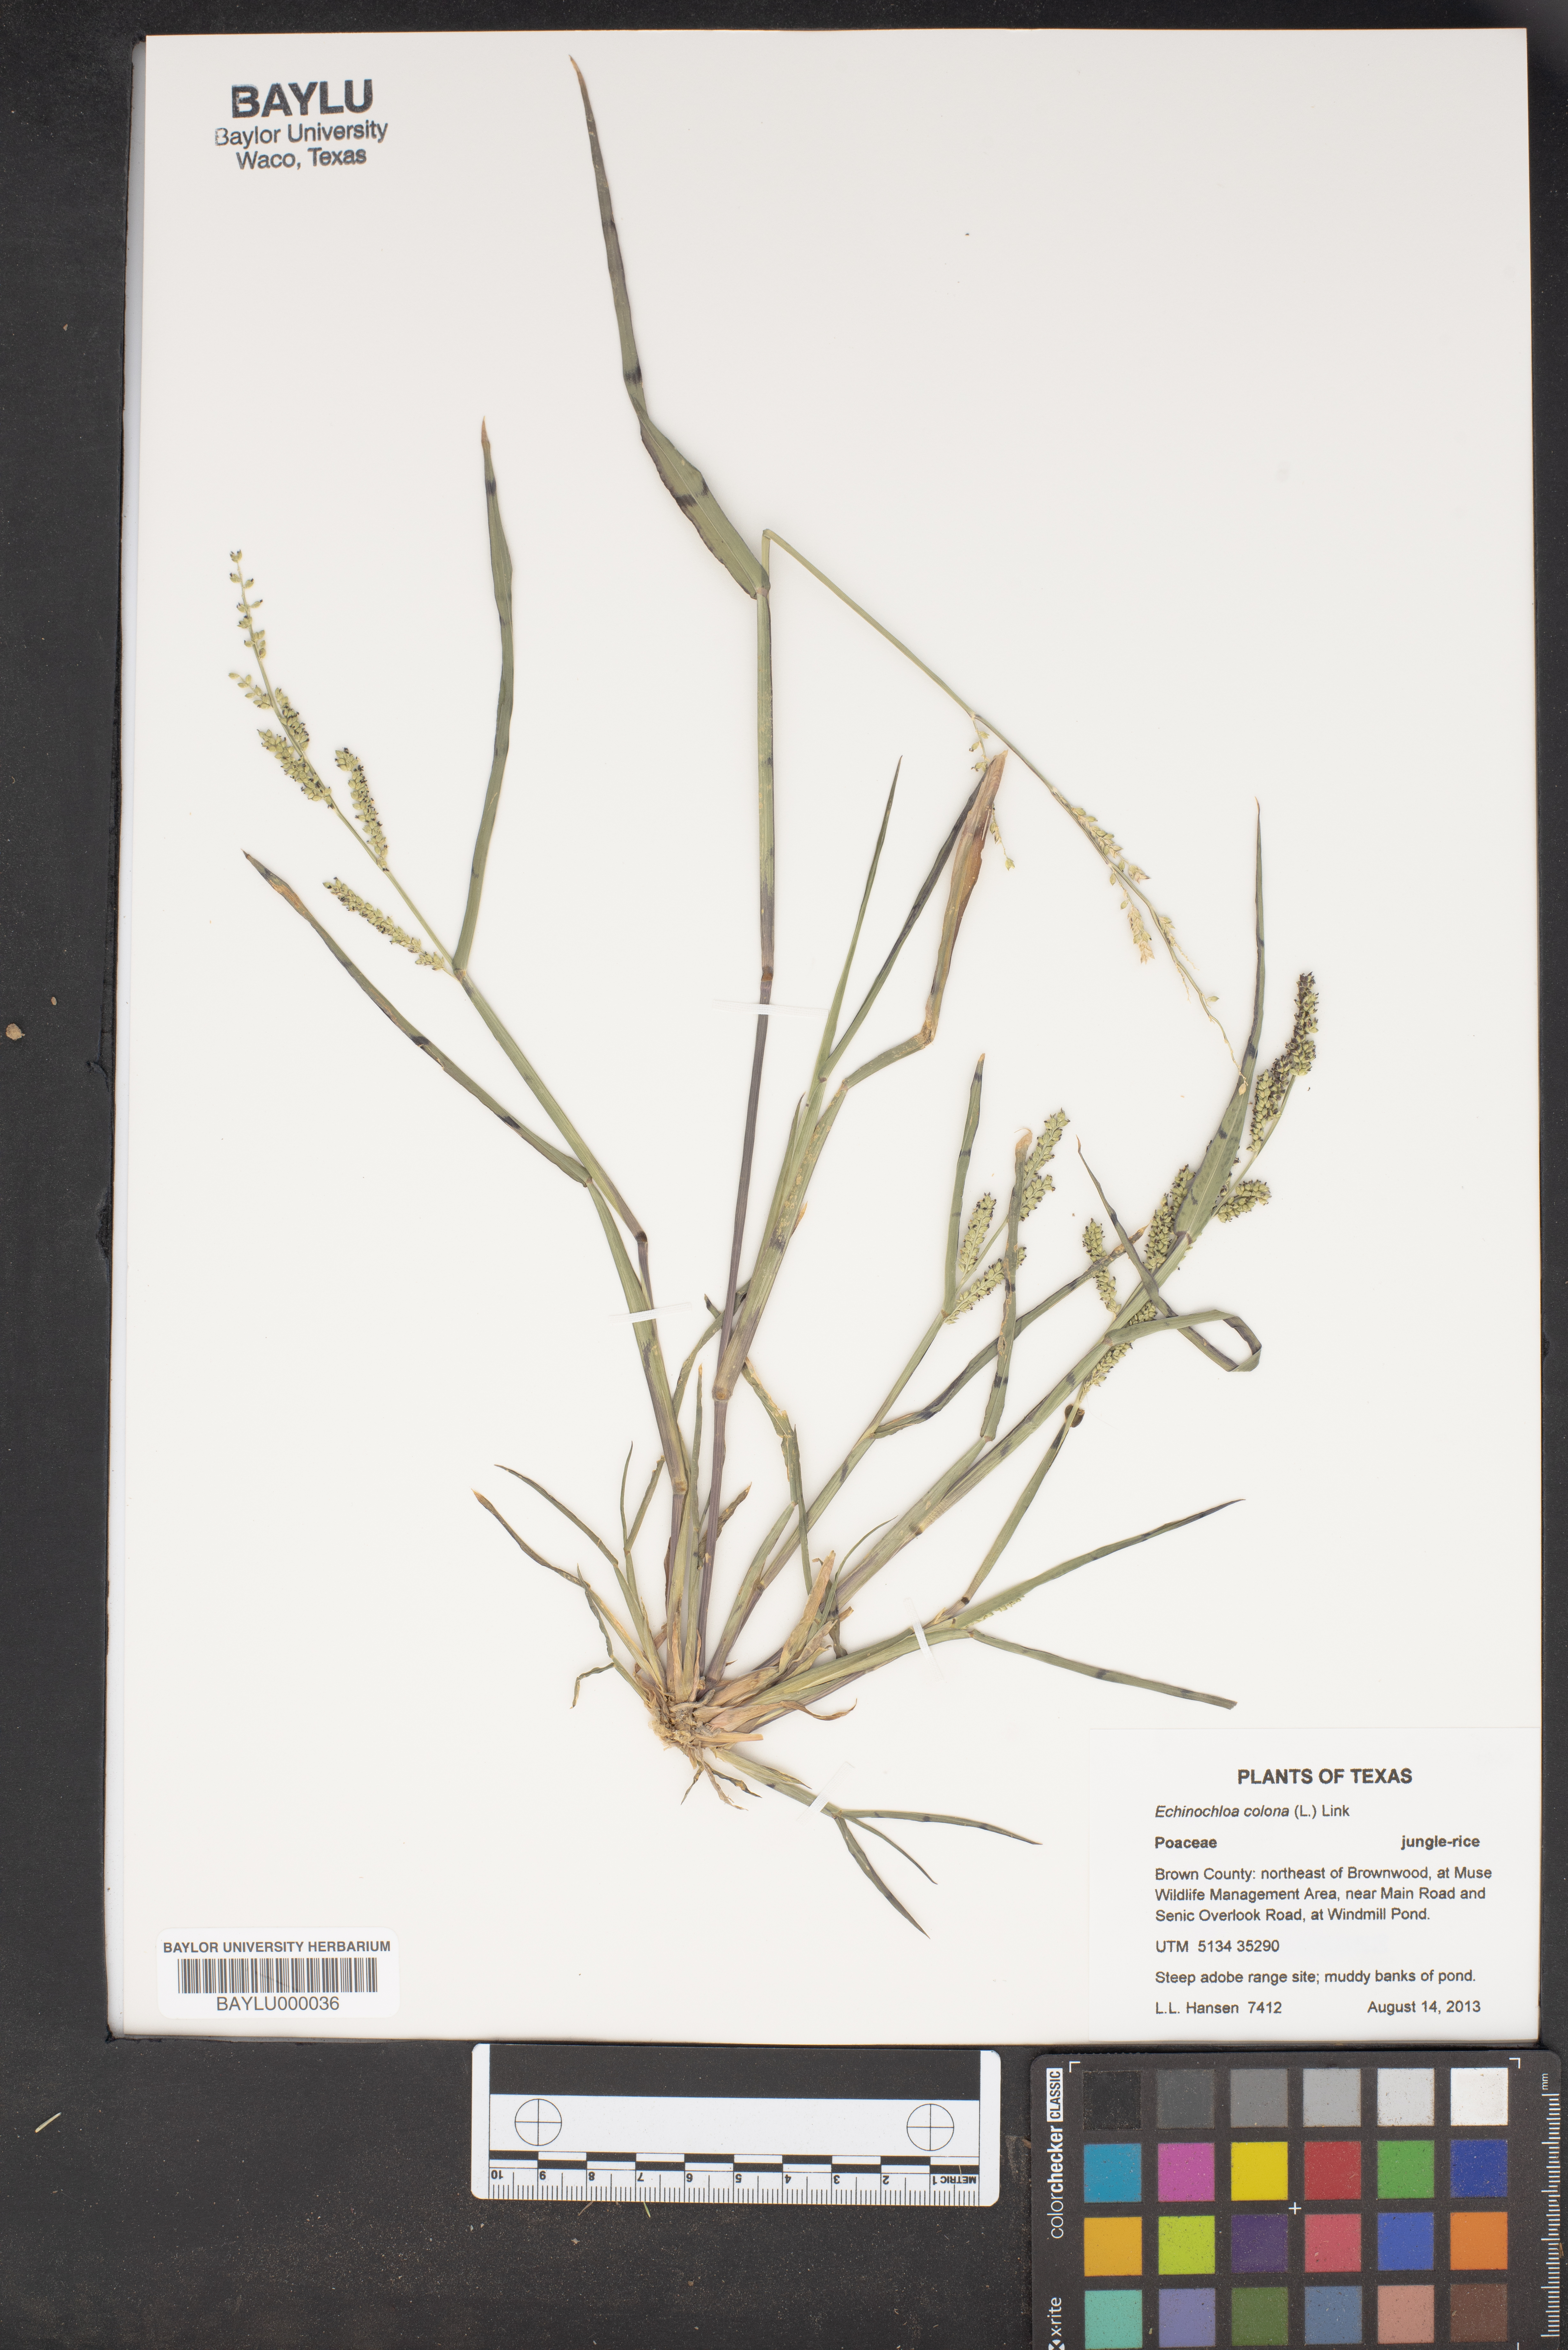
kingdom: Plantae
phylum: Tracheophyta
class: Liliopsida
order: Poales
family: Poaceae
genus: Echinochloa
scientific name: Echinochloa colonum
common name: Jungle rice
